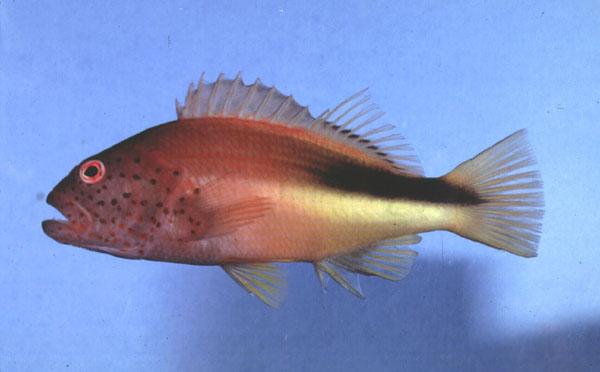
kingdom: Animalia
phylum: Chordata
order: Perciformes
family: Cirrhitidae
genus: Paracirrhites
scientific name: Paracirrhites forsteri
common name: Freckled hawkfish
